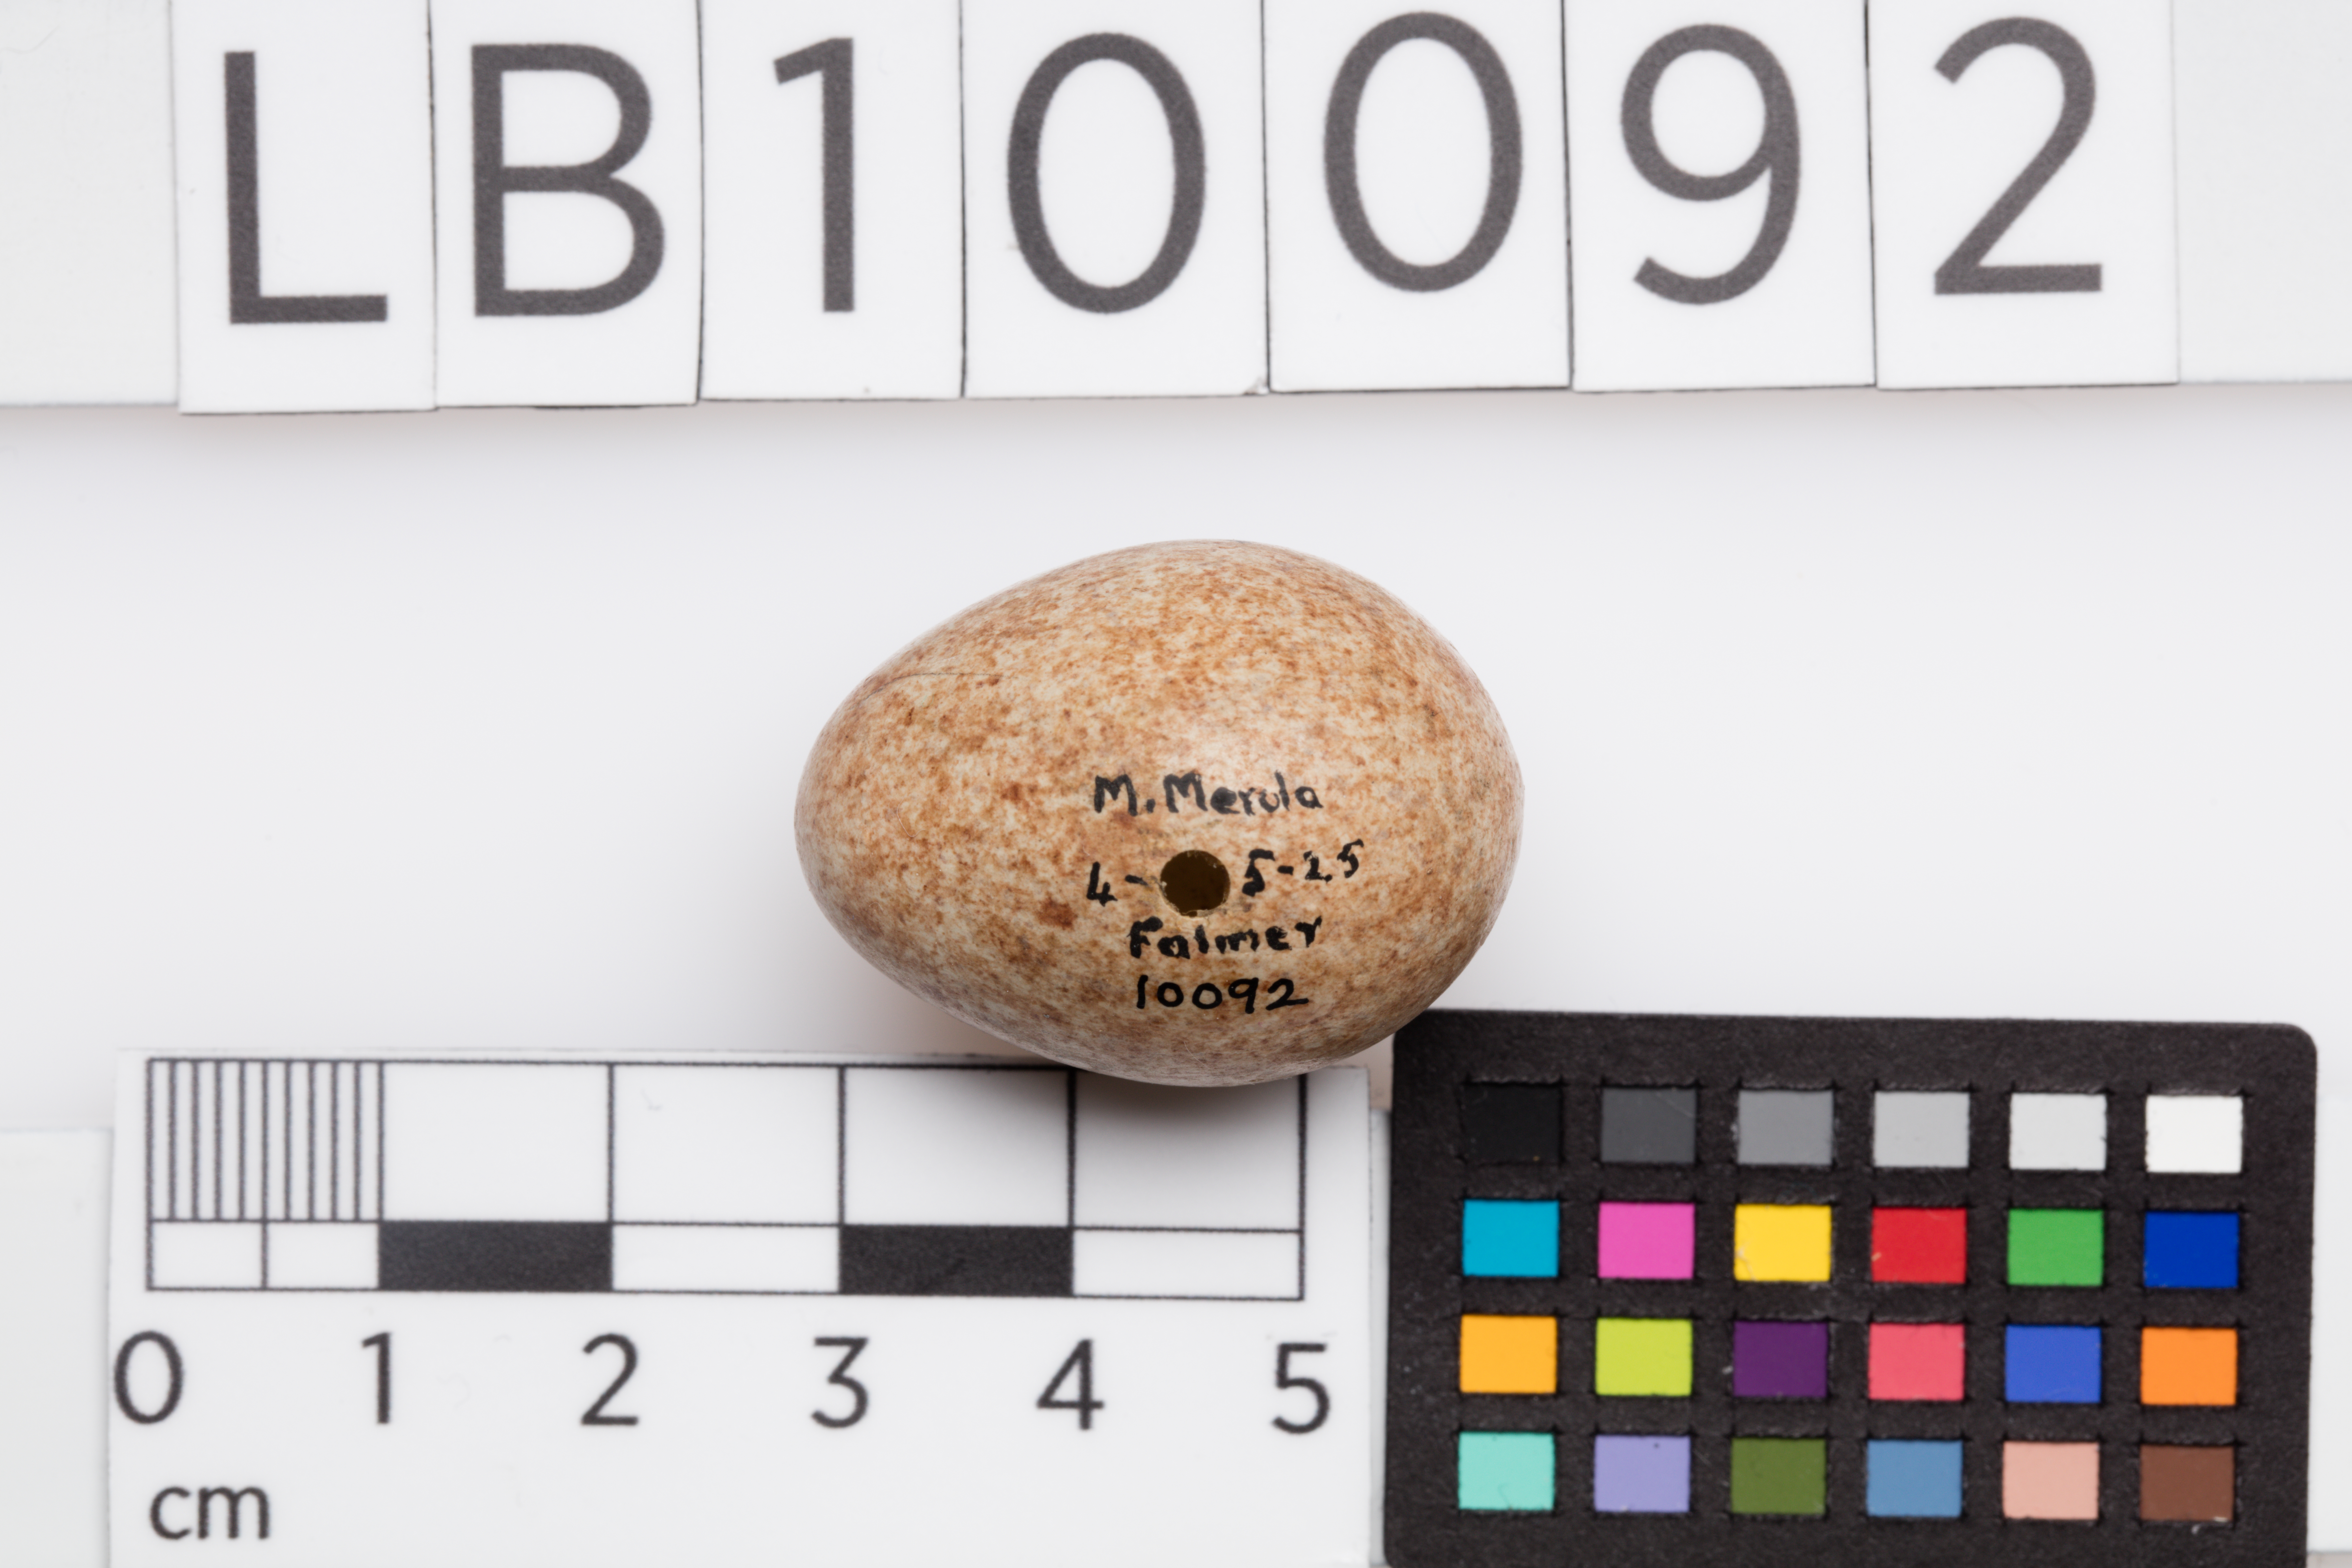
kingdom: Animalia
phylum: Chordata
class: Aves
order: Passeriformes
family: Turdidae
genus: Turdus
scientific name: Turdus merula
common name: Common blackbird
